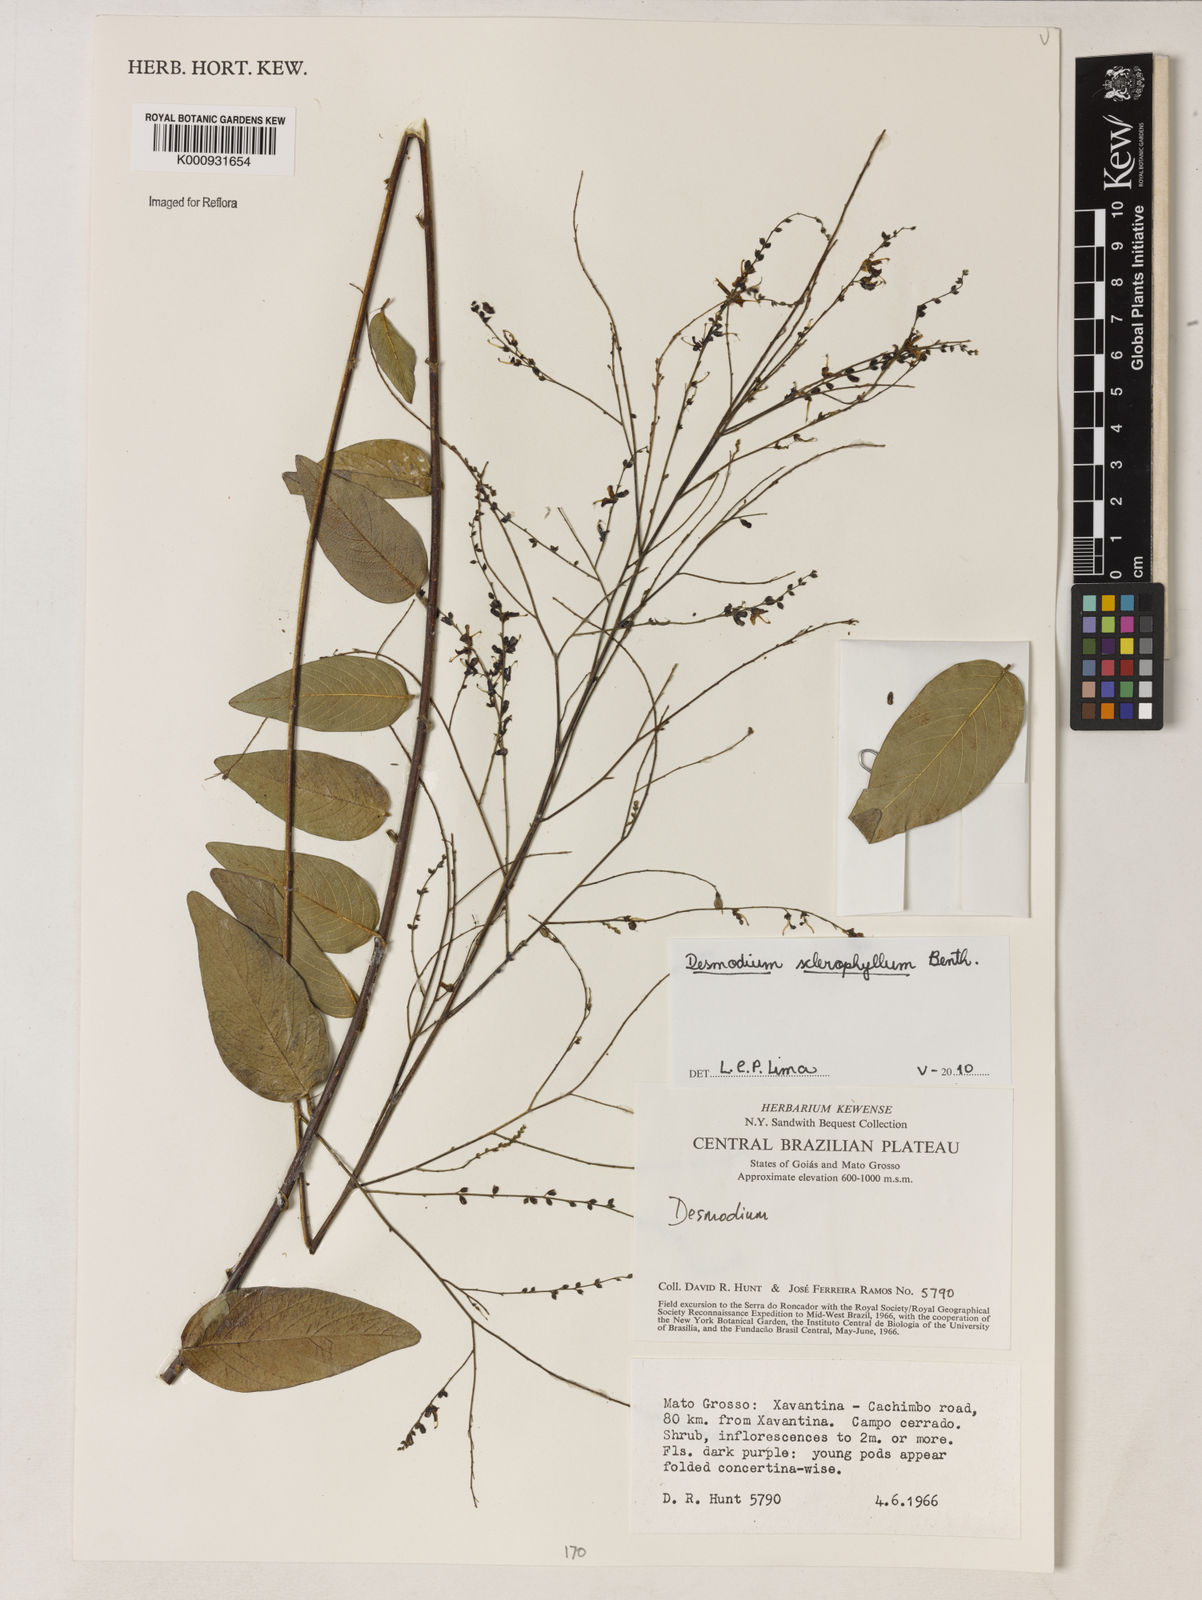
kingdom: Plantae
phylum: Tracheophyta
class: Magnoliopsida
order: Fabales
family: Fabaceae
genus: Desmodium
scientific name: Desmodium sclerophyllum
